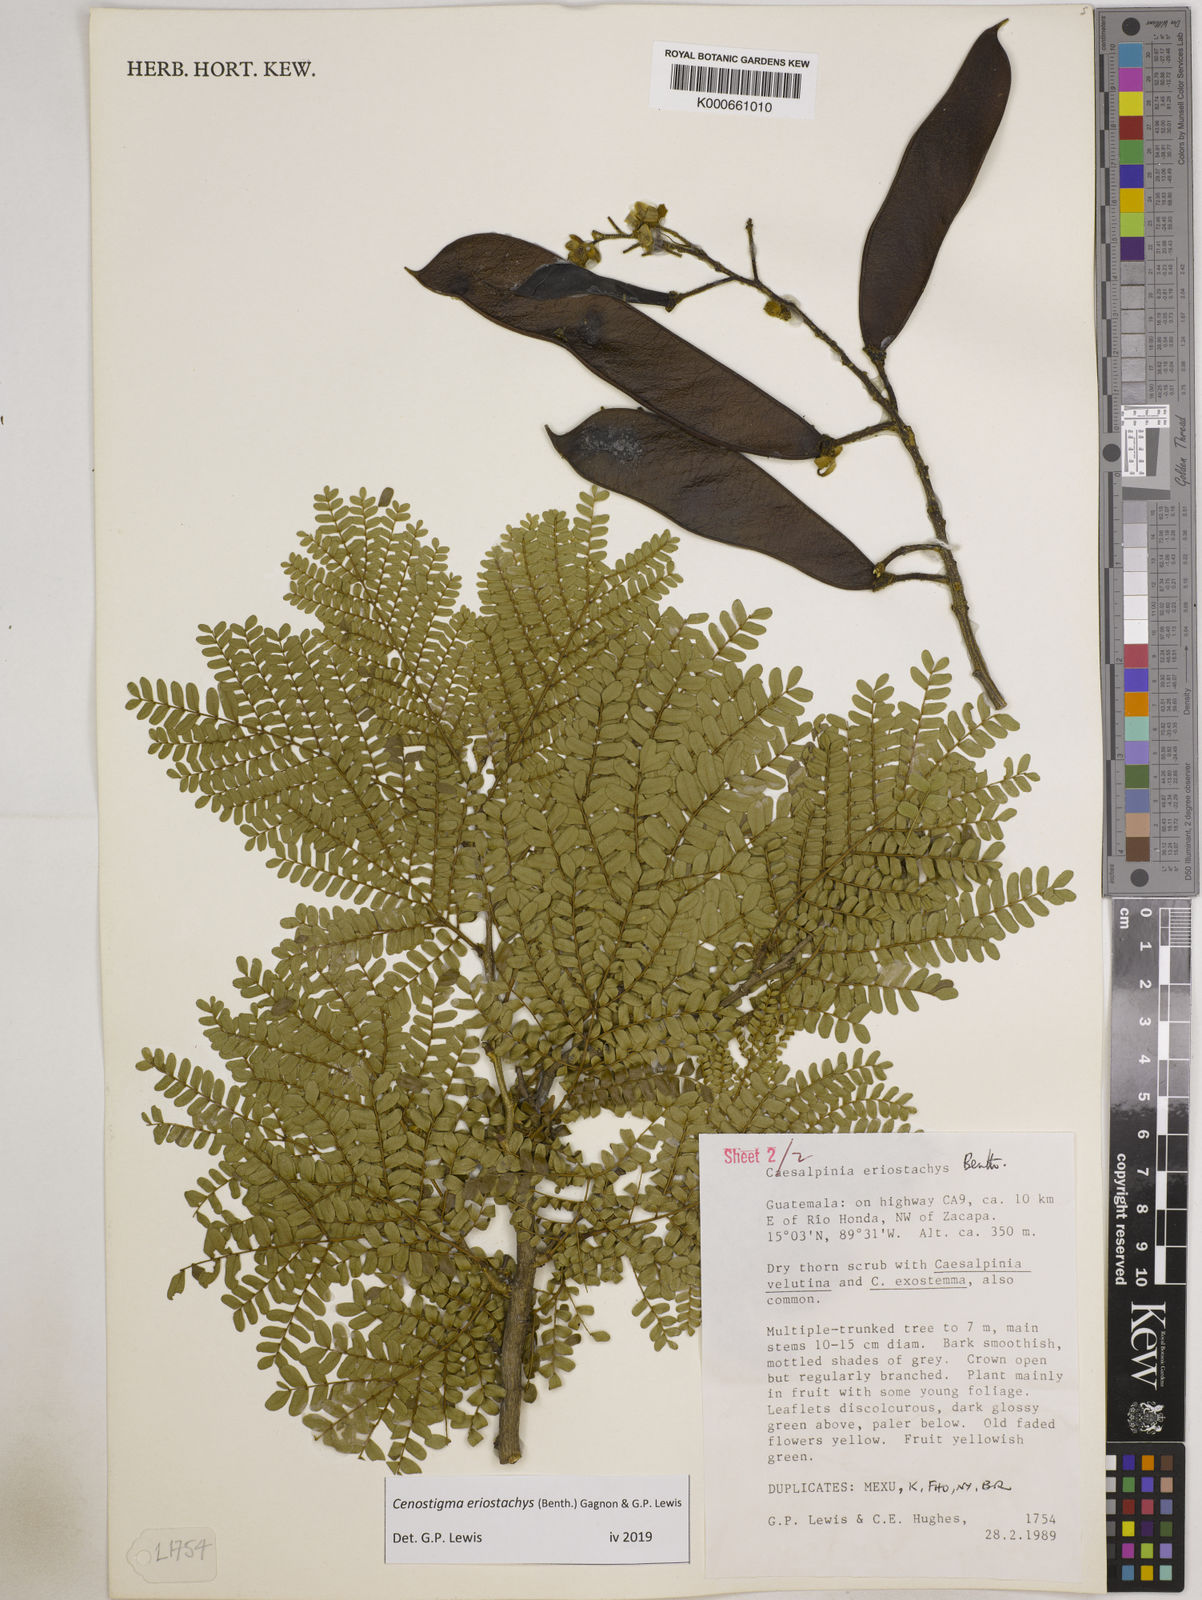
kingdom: Plantae
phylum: Tracheophyta
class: Magnoliopsida
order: Fabales
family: Fabaceae
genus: Cenostigma
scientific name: Cenostigma eriostachys
